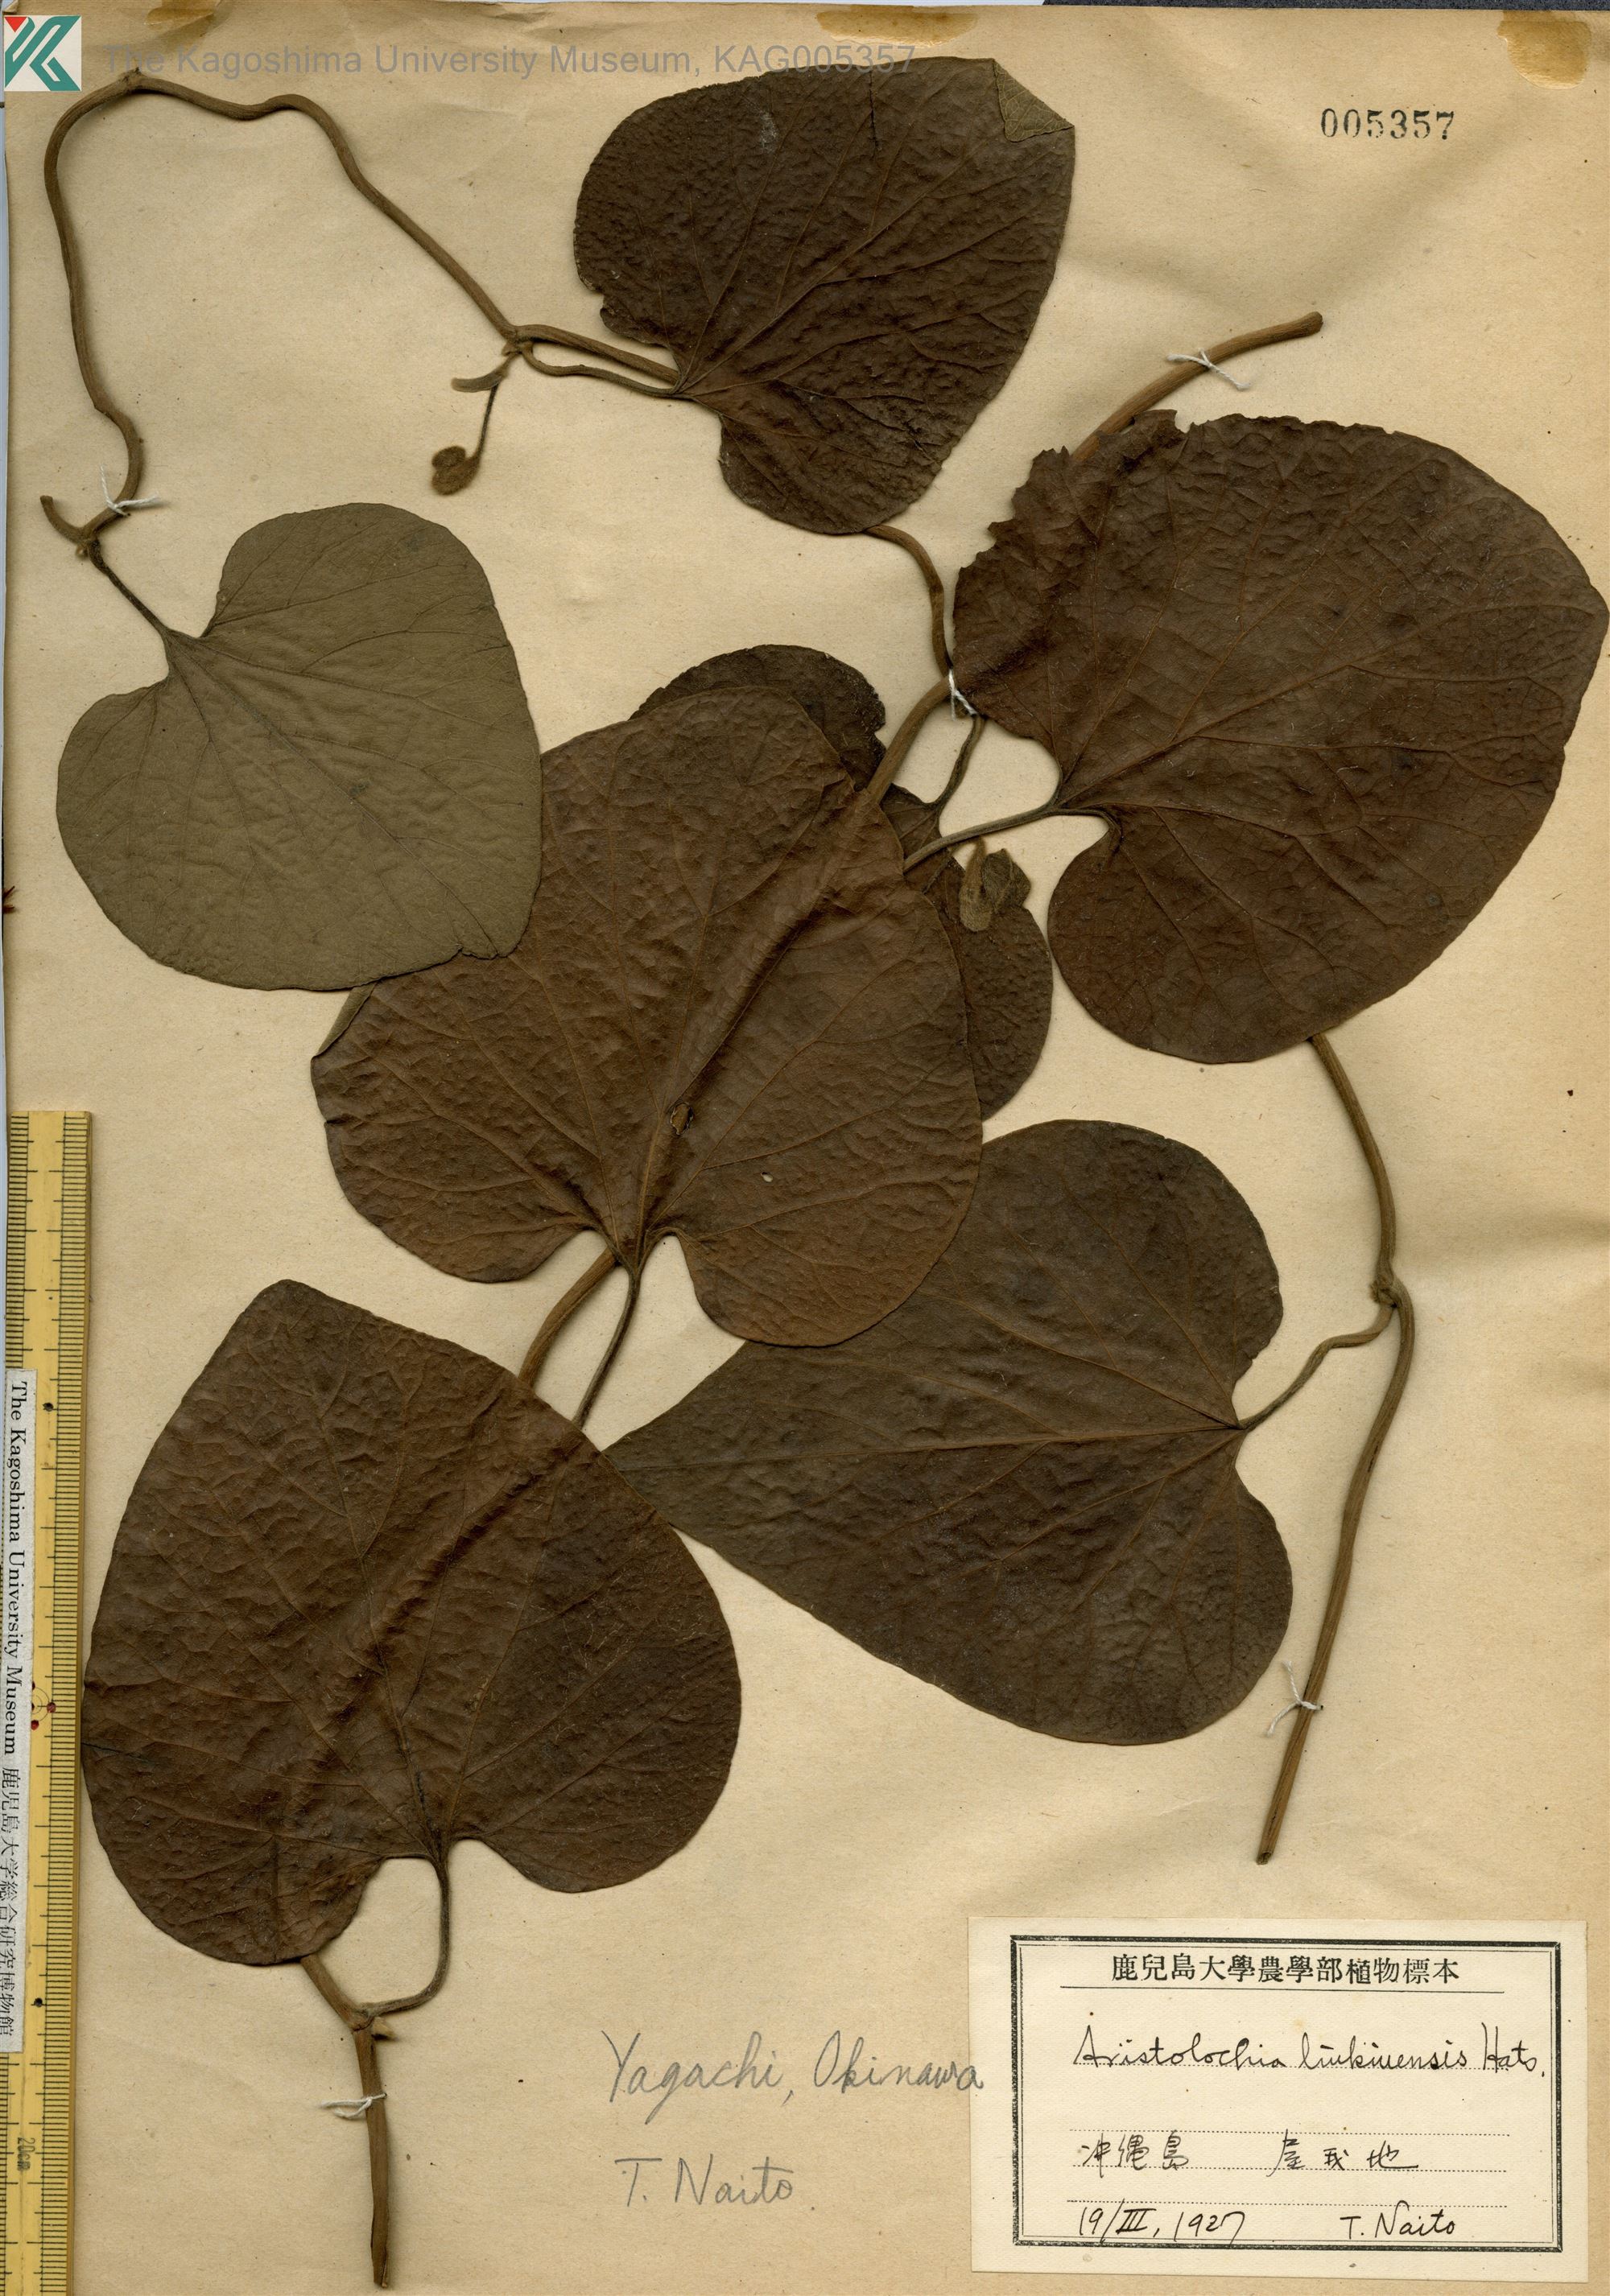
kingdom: Plantae
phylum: Tracheophyta
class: Magnoliopsida
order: Piperales
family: Aristolochiaceae
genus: Isotrema
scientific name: Isotrema liukiuense
